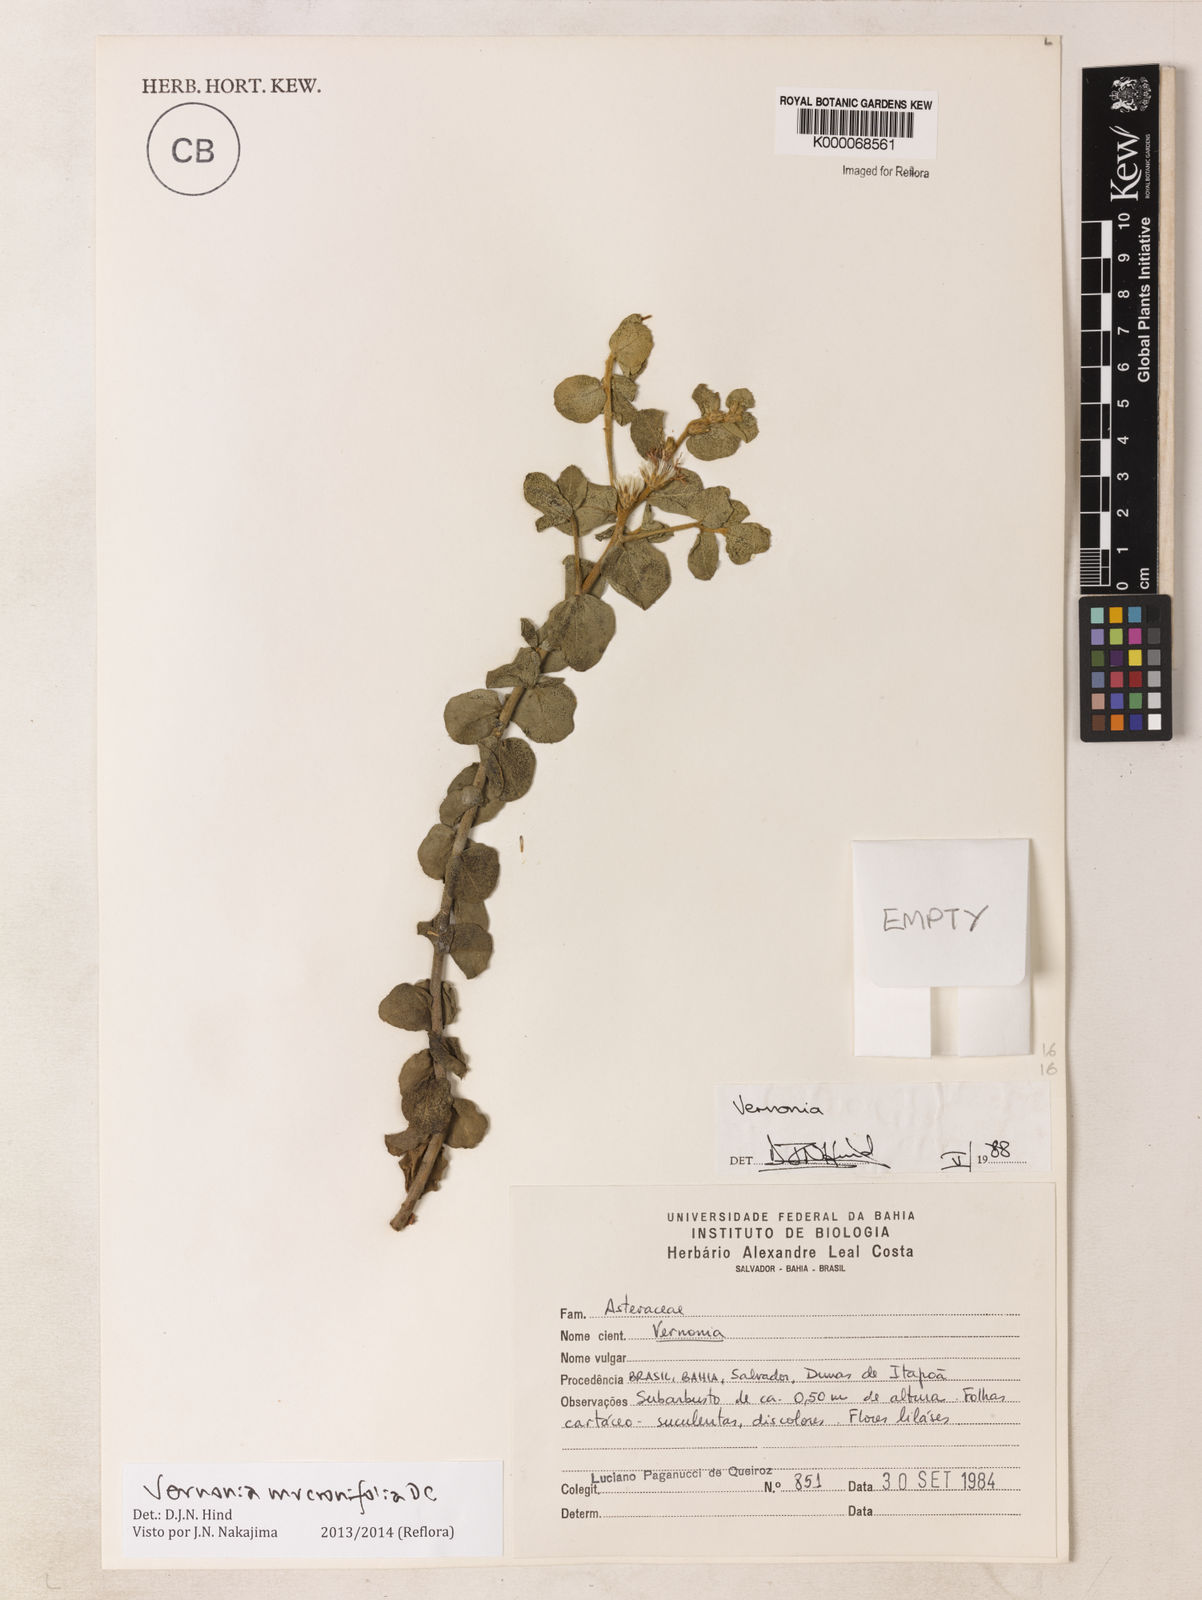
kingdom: Plantae
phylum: Tracheophyta
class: Magnoliopsida
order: Asterales
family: Asteraceae
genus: Lepidaploa
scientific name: Lepidaploa mucronifolia
